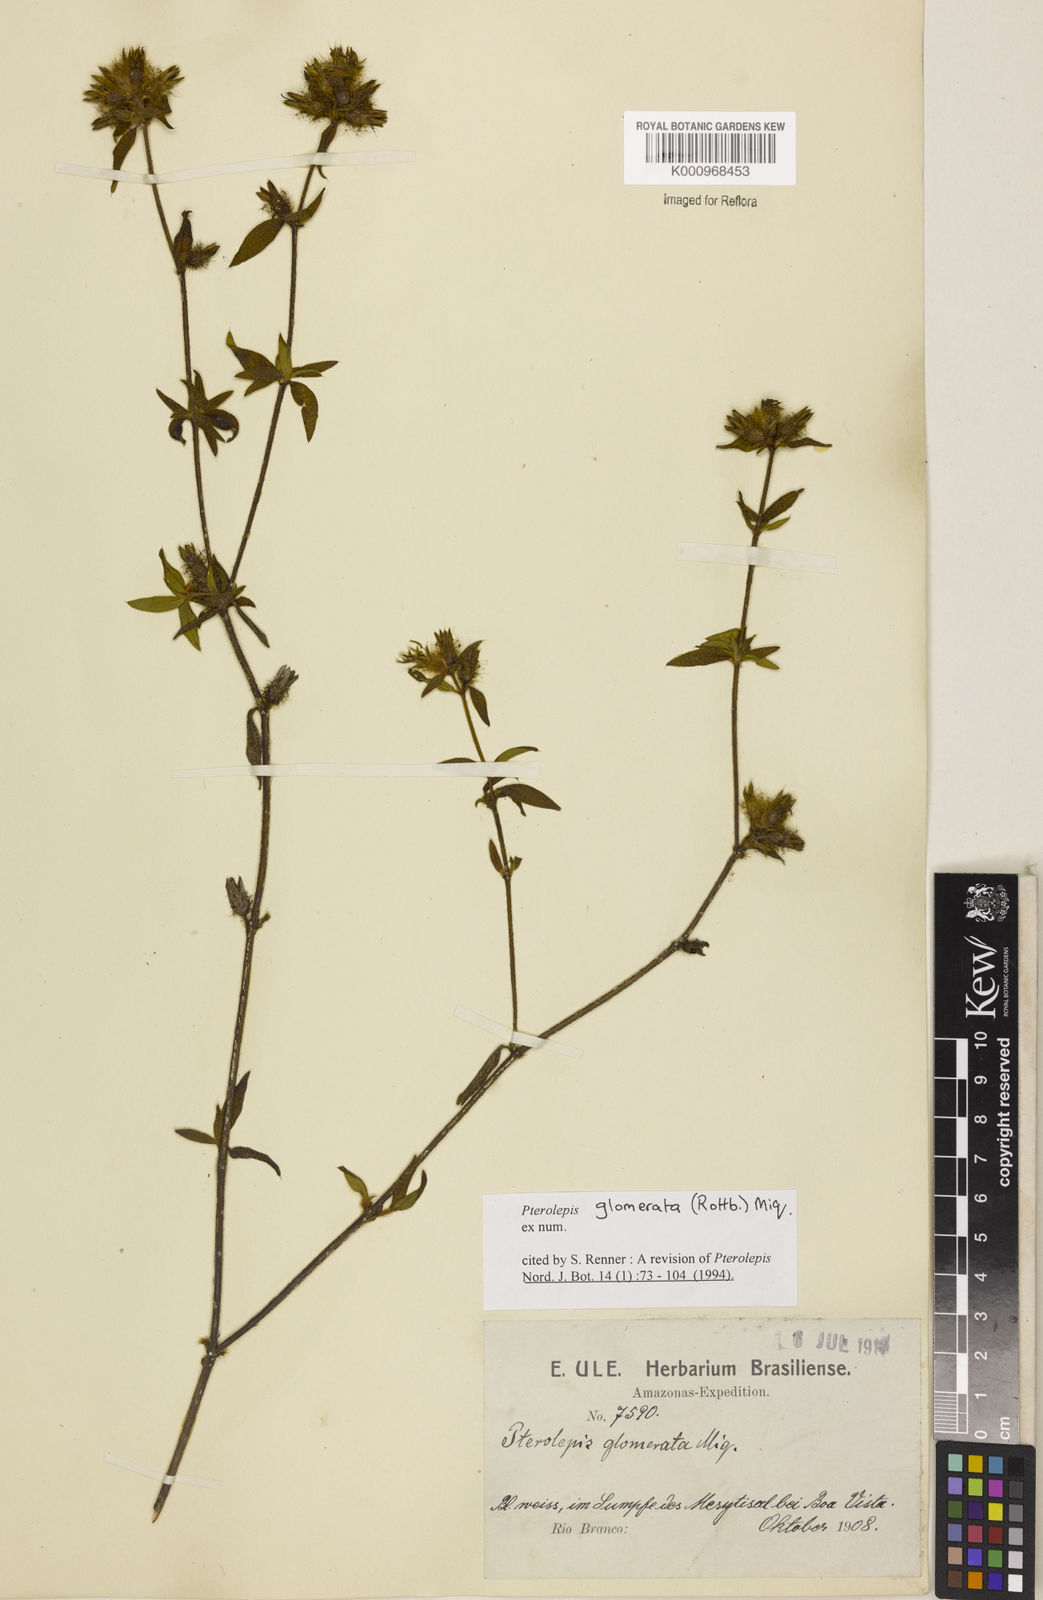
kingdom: Plantae
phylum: Tracheophyta
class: Magnoliopsida
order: Myrtales
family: Melastomataceae
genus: Pterolepis
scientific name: Pterolepis glomerata
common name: False meadowbeauty
